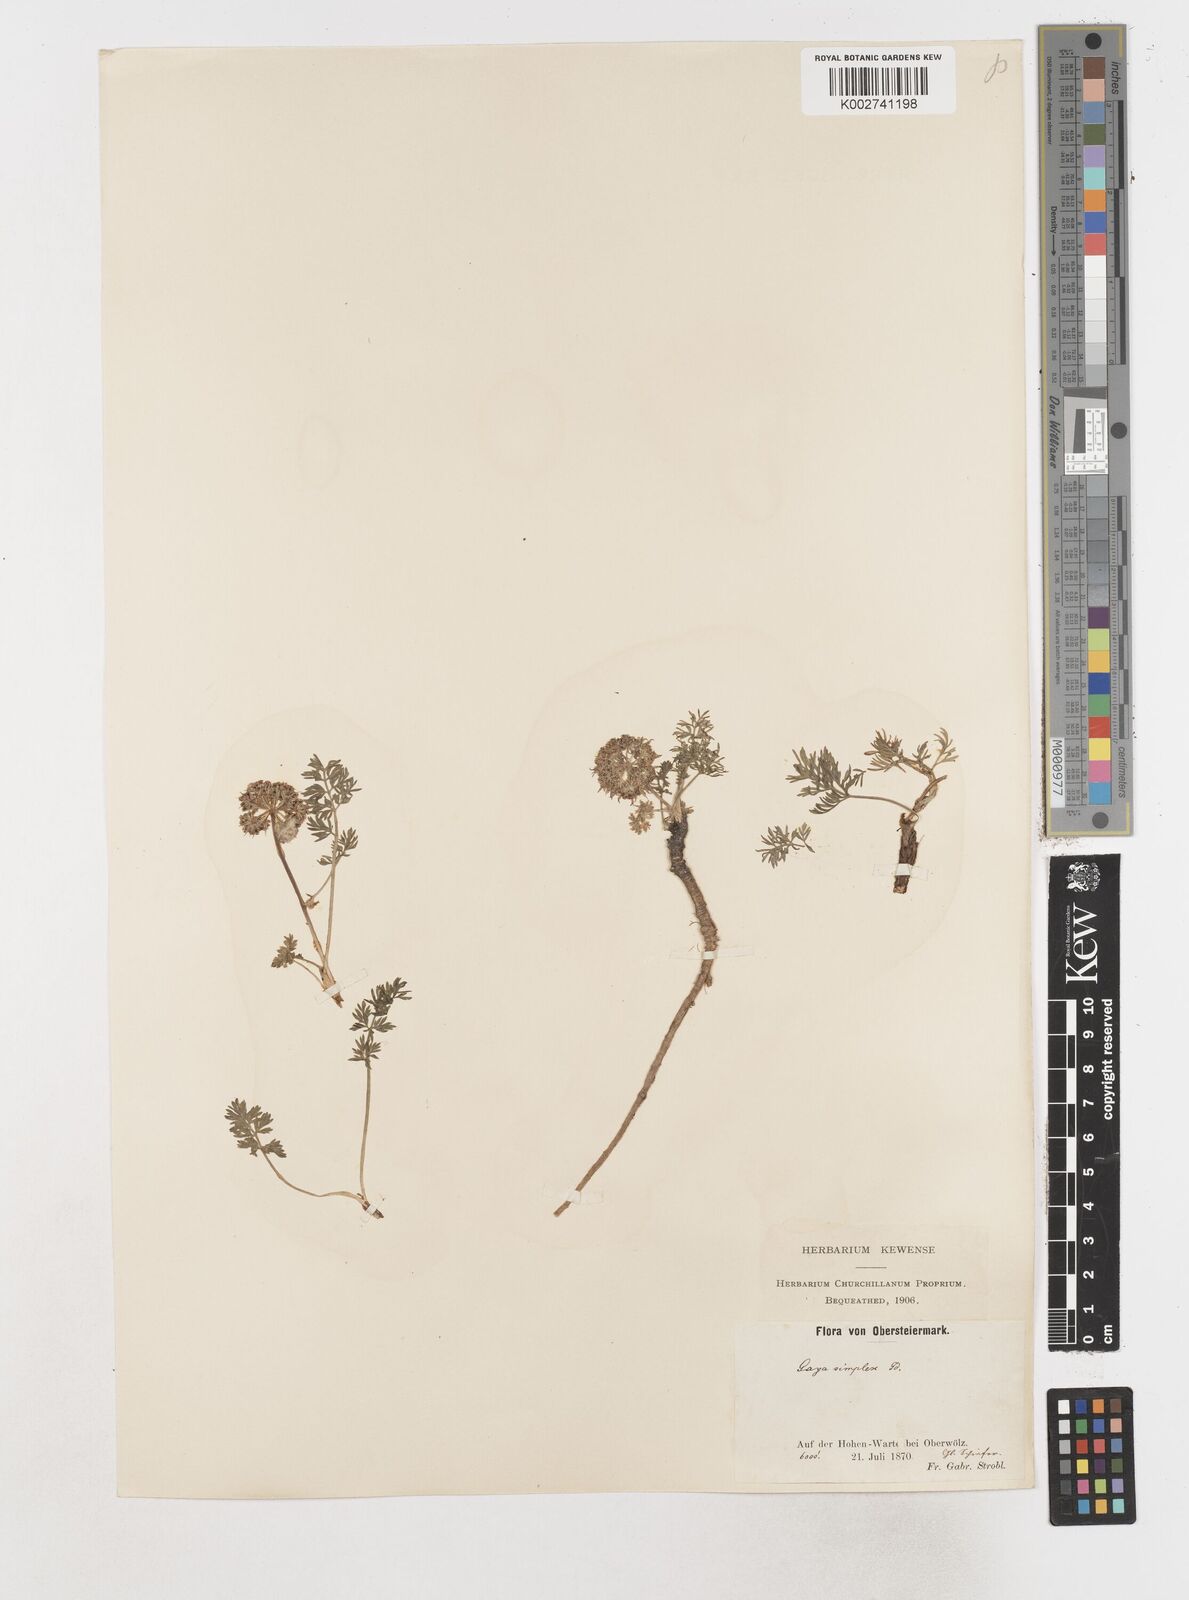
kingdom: Plantae
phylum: Tracheophyta
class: Magnoliopsida
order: Apiales
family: Apiaceae
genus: Pachypleurum
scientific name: Pachypleurum mutellinoides
